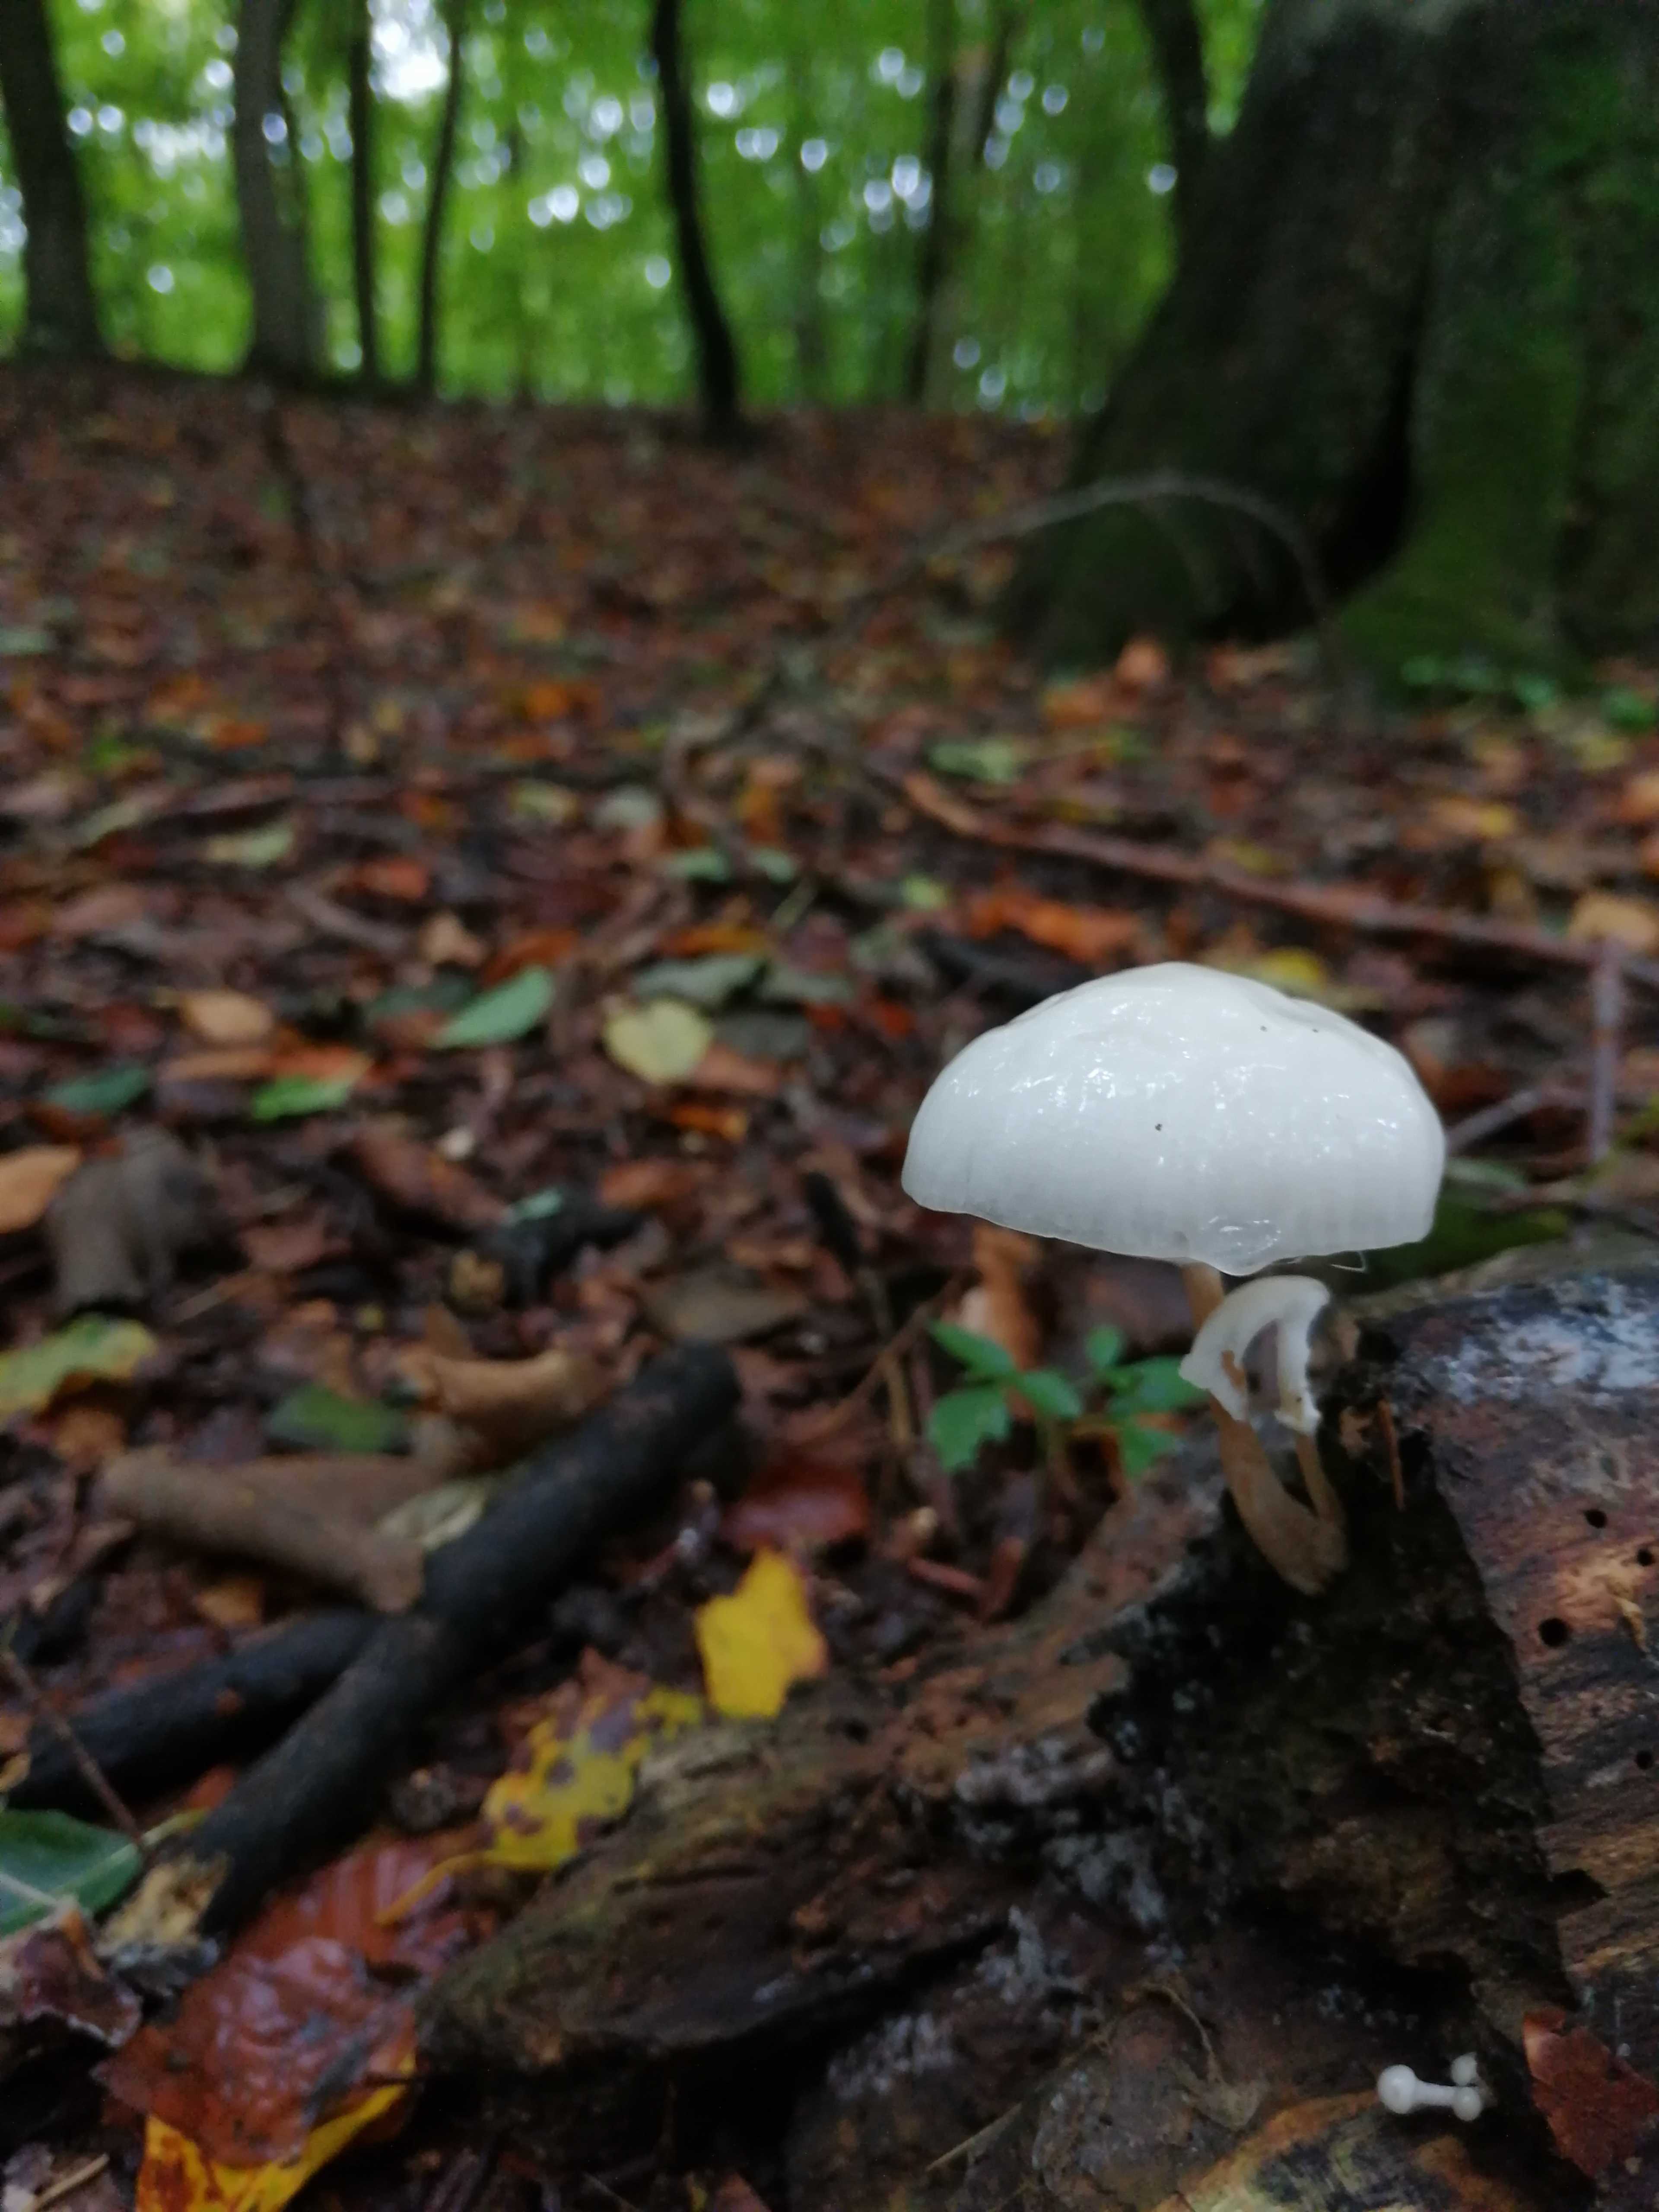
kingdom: Fungi
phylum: Basidiomycota
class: Agaricomycetes
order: Agaricales
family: Physalacriaceae
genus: Mucidula
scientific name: Mucidula mucida
